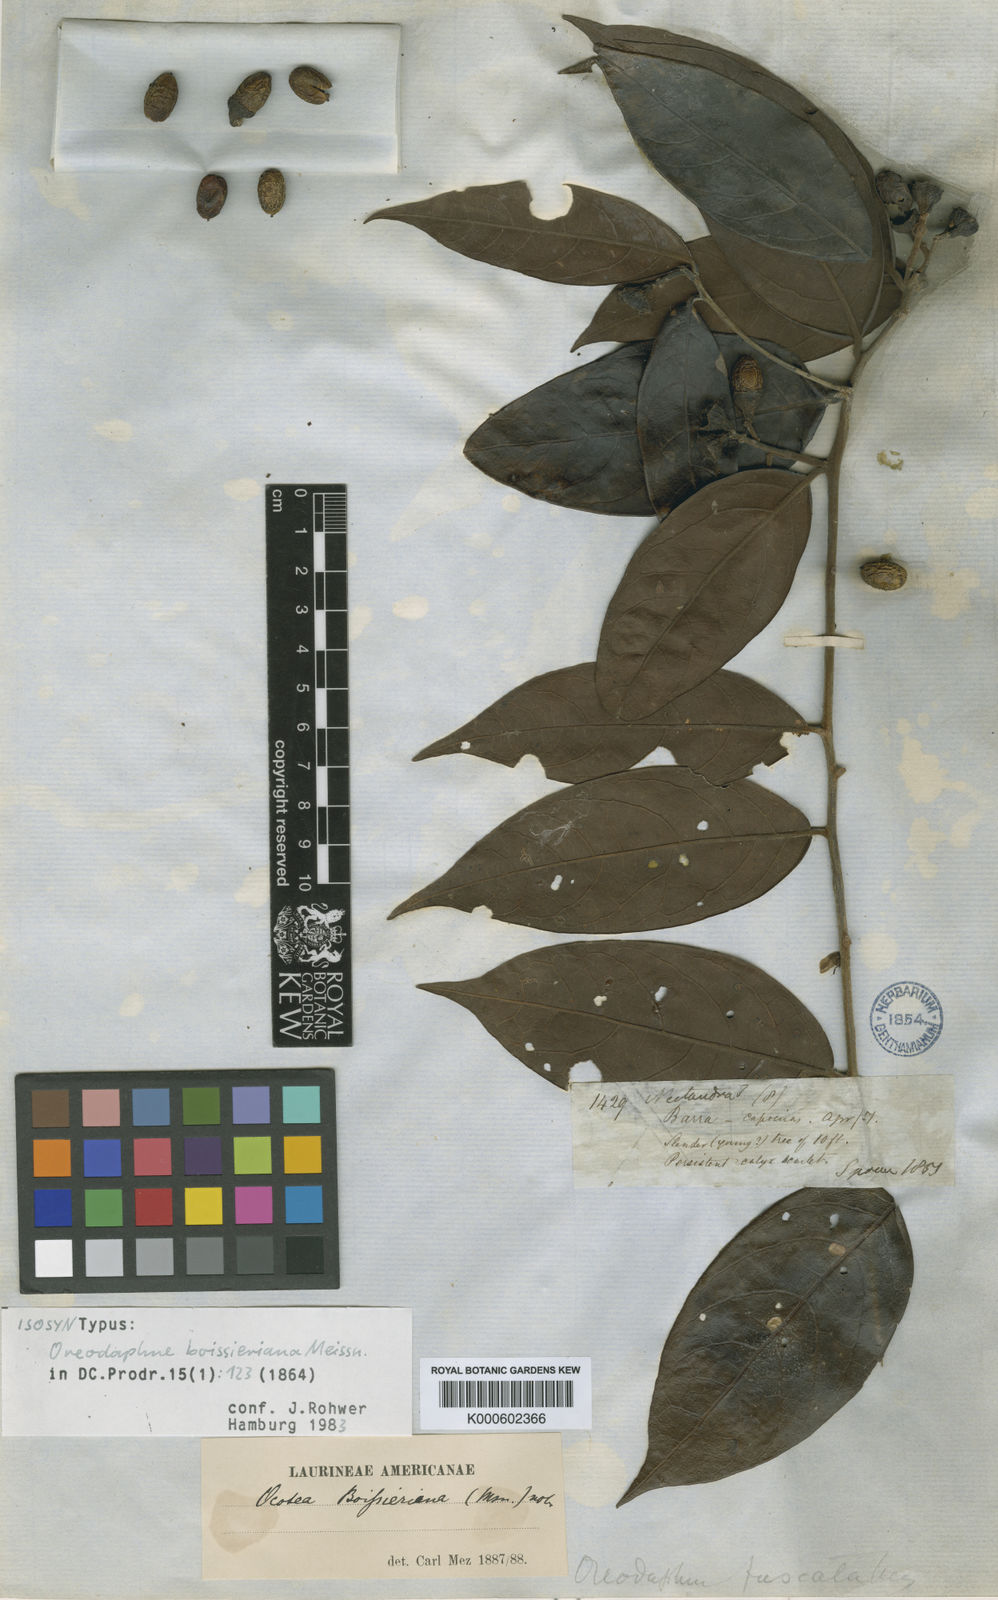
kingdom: Plantae
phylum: Tracheophyta
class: Magnoliopsida
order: Laurales
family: Lauraceae
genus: Ocotea
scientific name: Ocotea boissieriana
